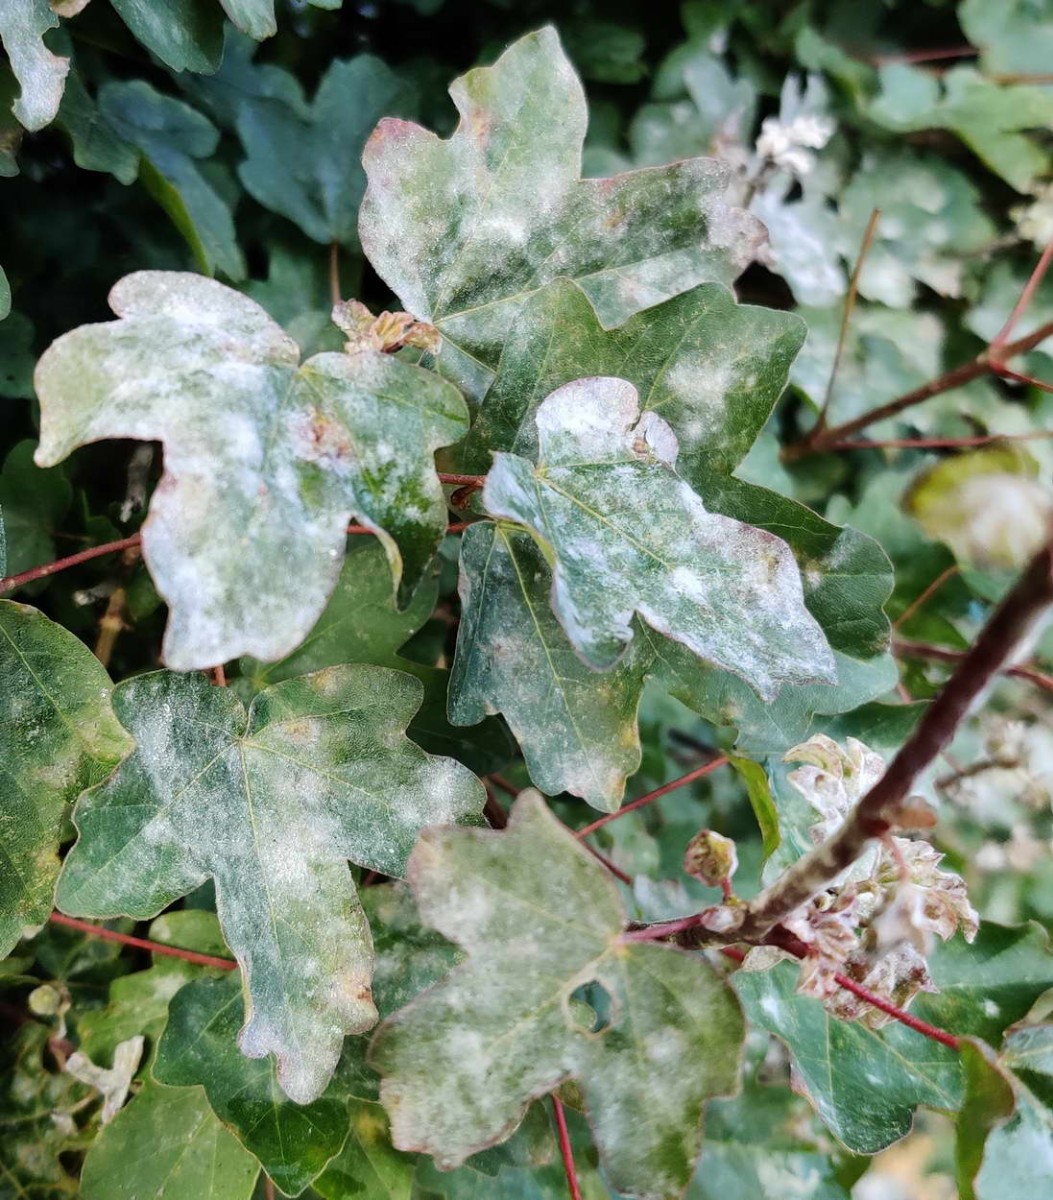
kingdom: Fungi
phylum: Ascomycota
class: Leotiomycetes
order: Helotiales
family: Erysiphaceae
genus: Sawadaea
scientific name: Sawadaea bicornis
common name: Maple mildew
